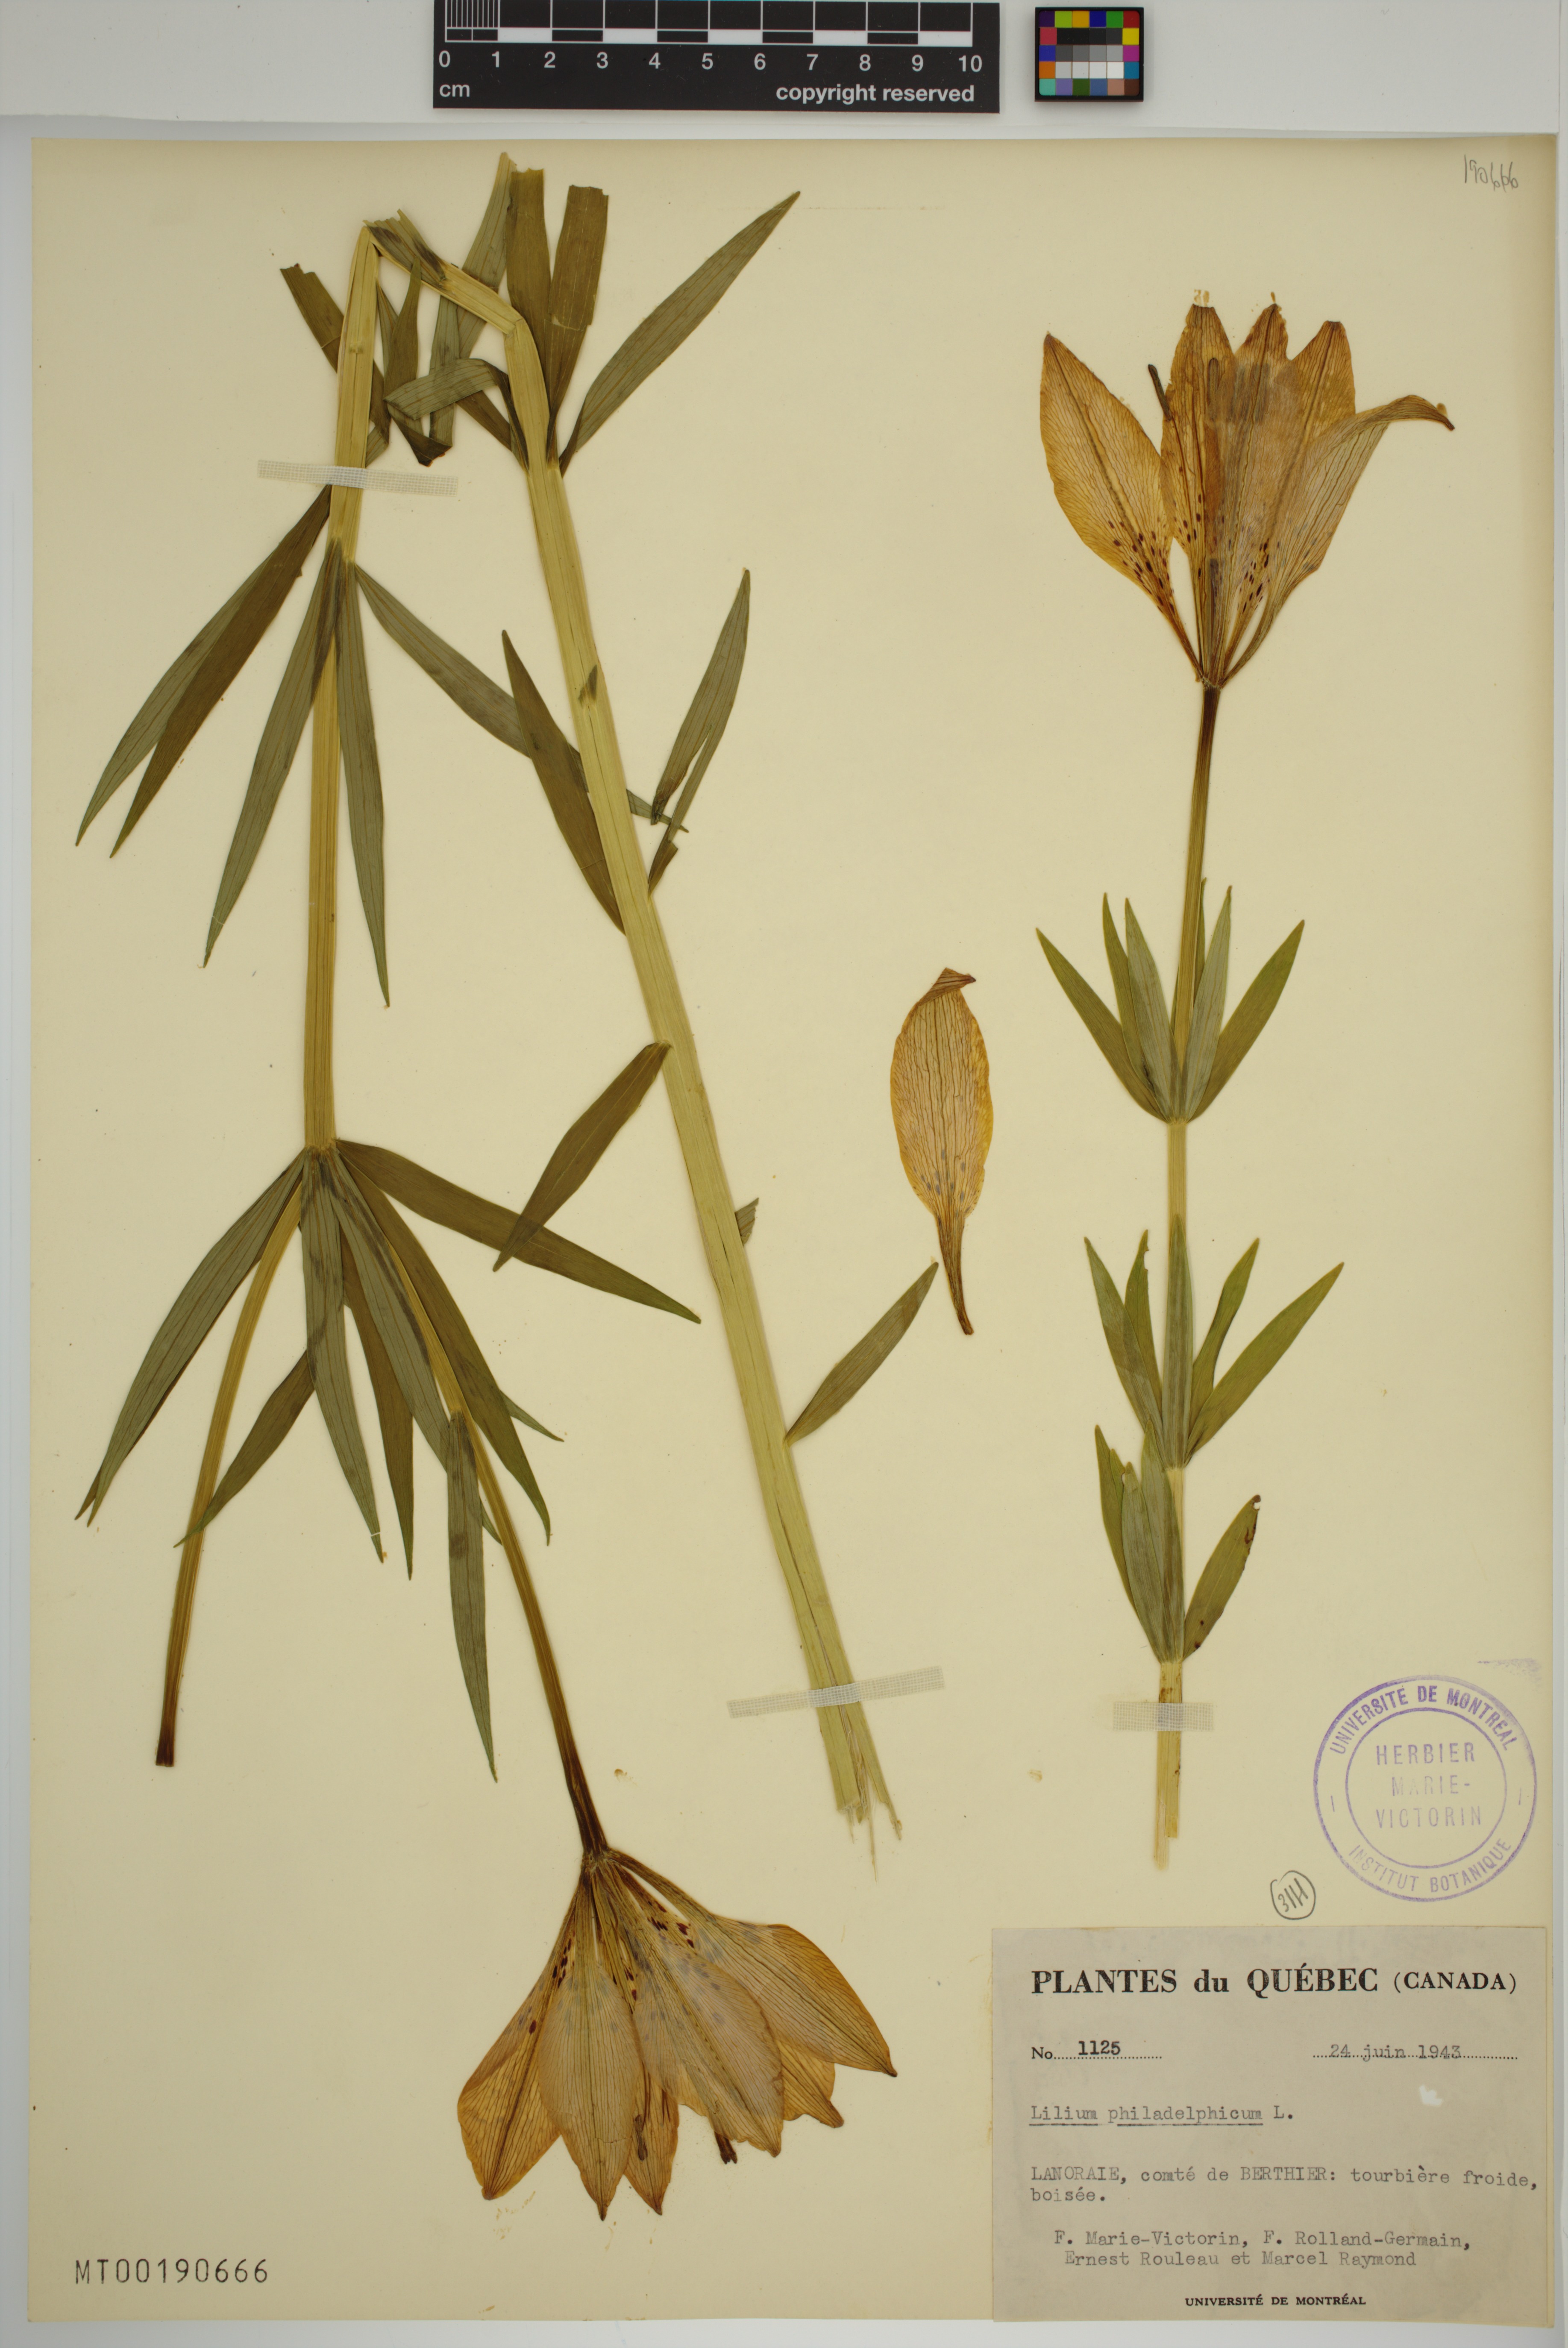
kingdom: Plantae
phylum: Tracheophyta
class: Liliopsida
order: Liliales
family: Liliaceae
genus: Lilium
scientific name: Lilium philadelphicum
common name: Red lily
